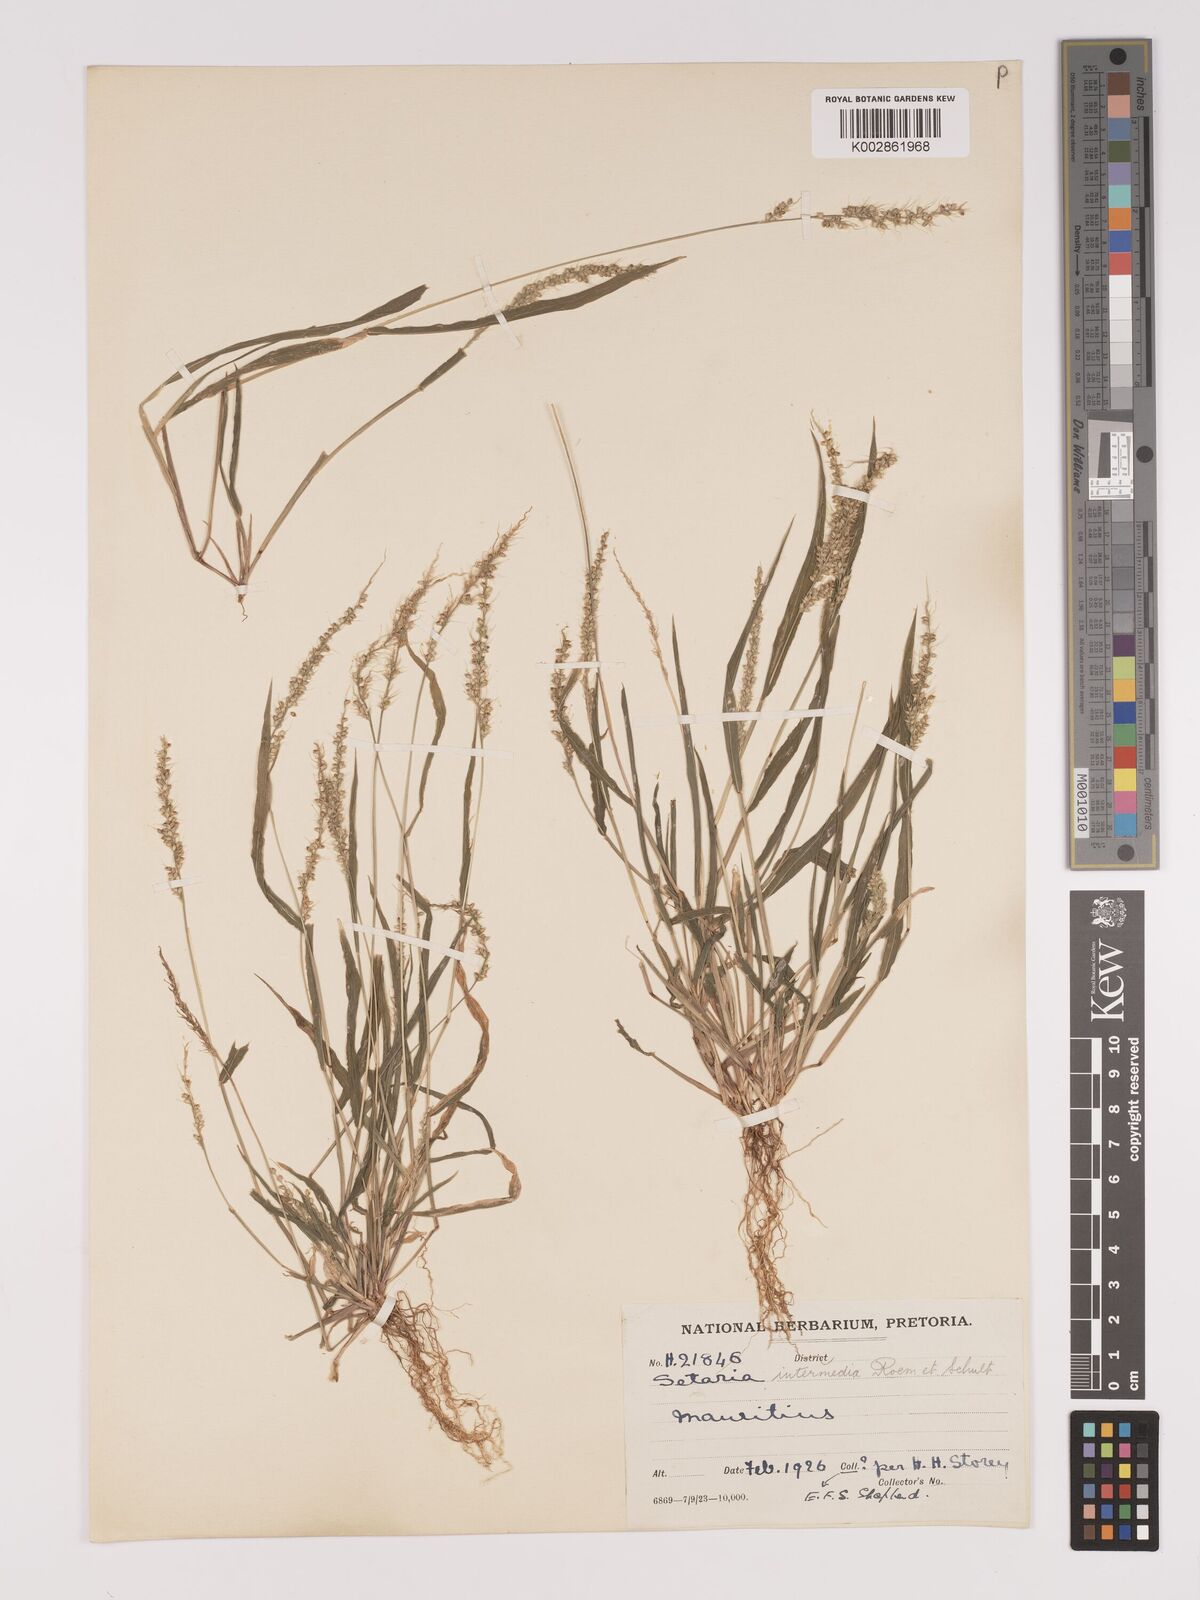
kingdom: Plantae
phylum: Tracheophyta
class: Liliopsida
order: Poales
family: Poaceae
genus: Setaria
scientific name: Setaria intermedia
